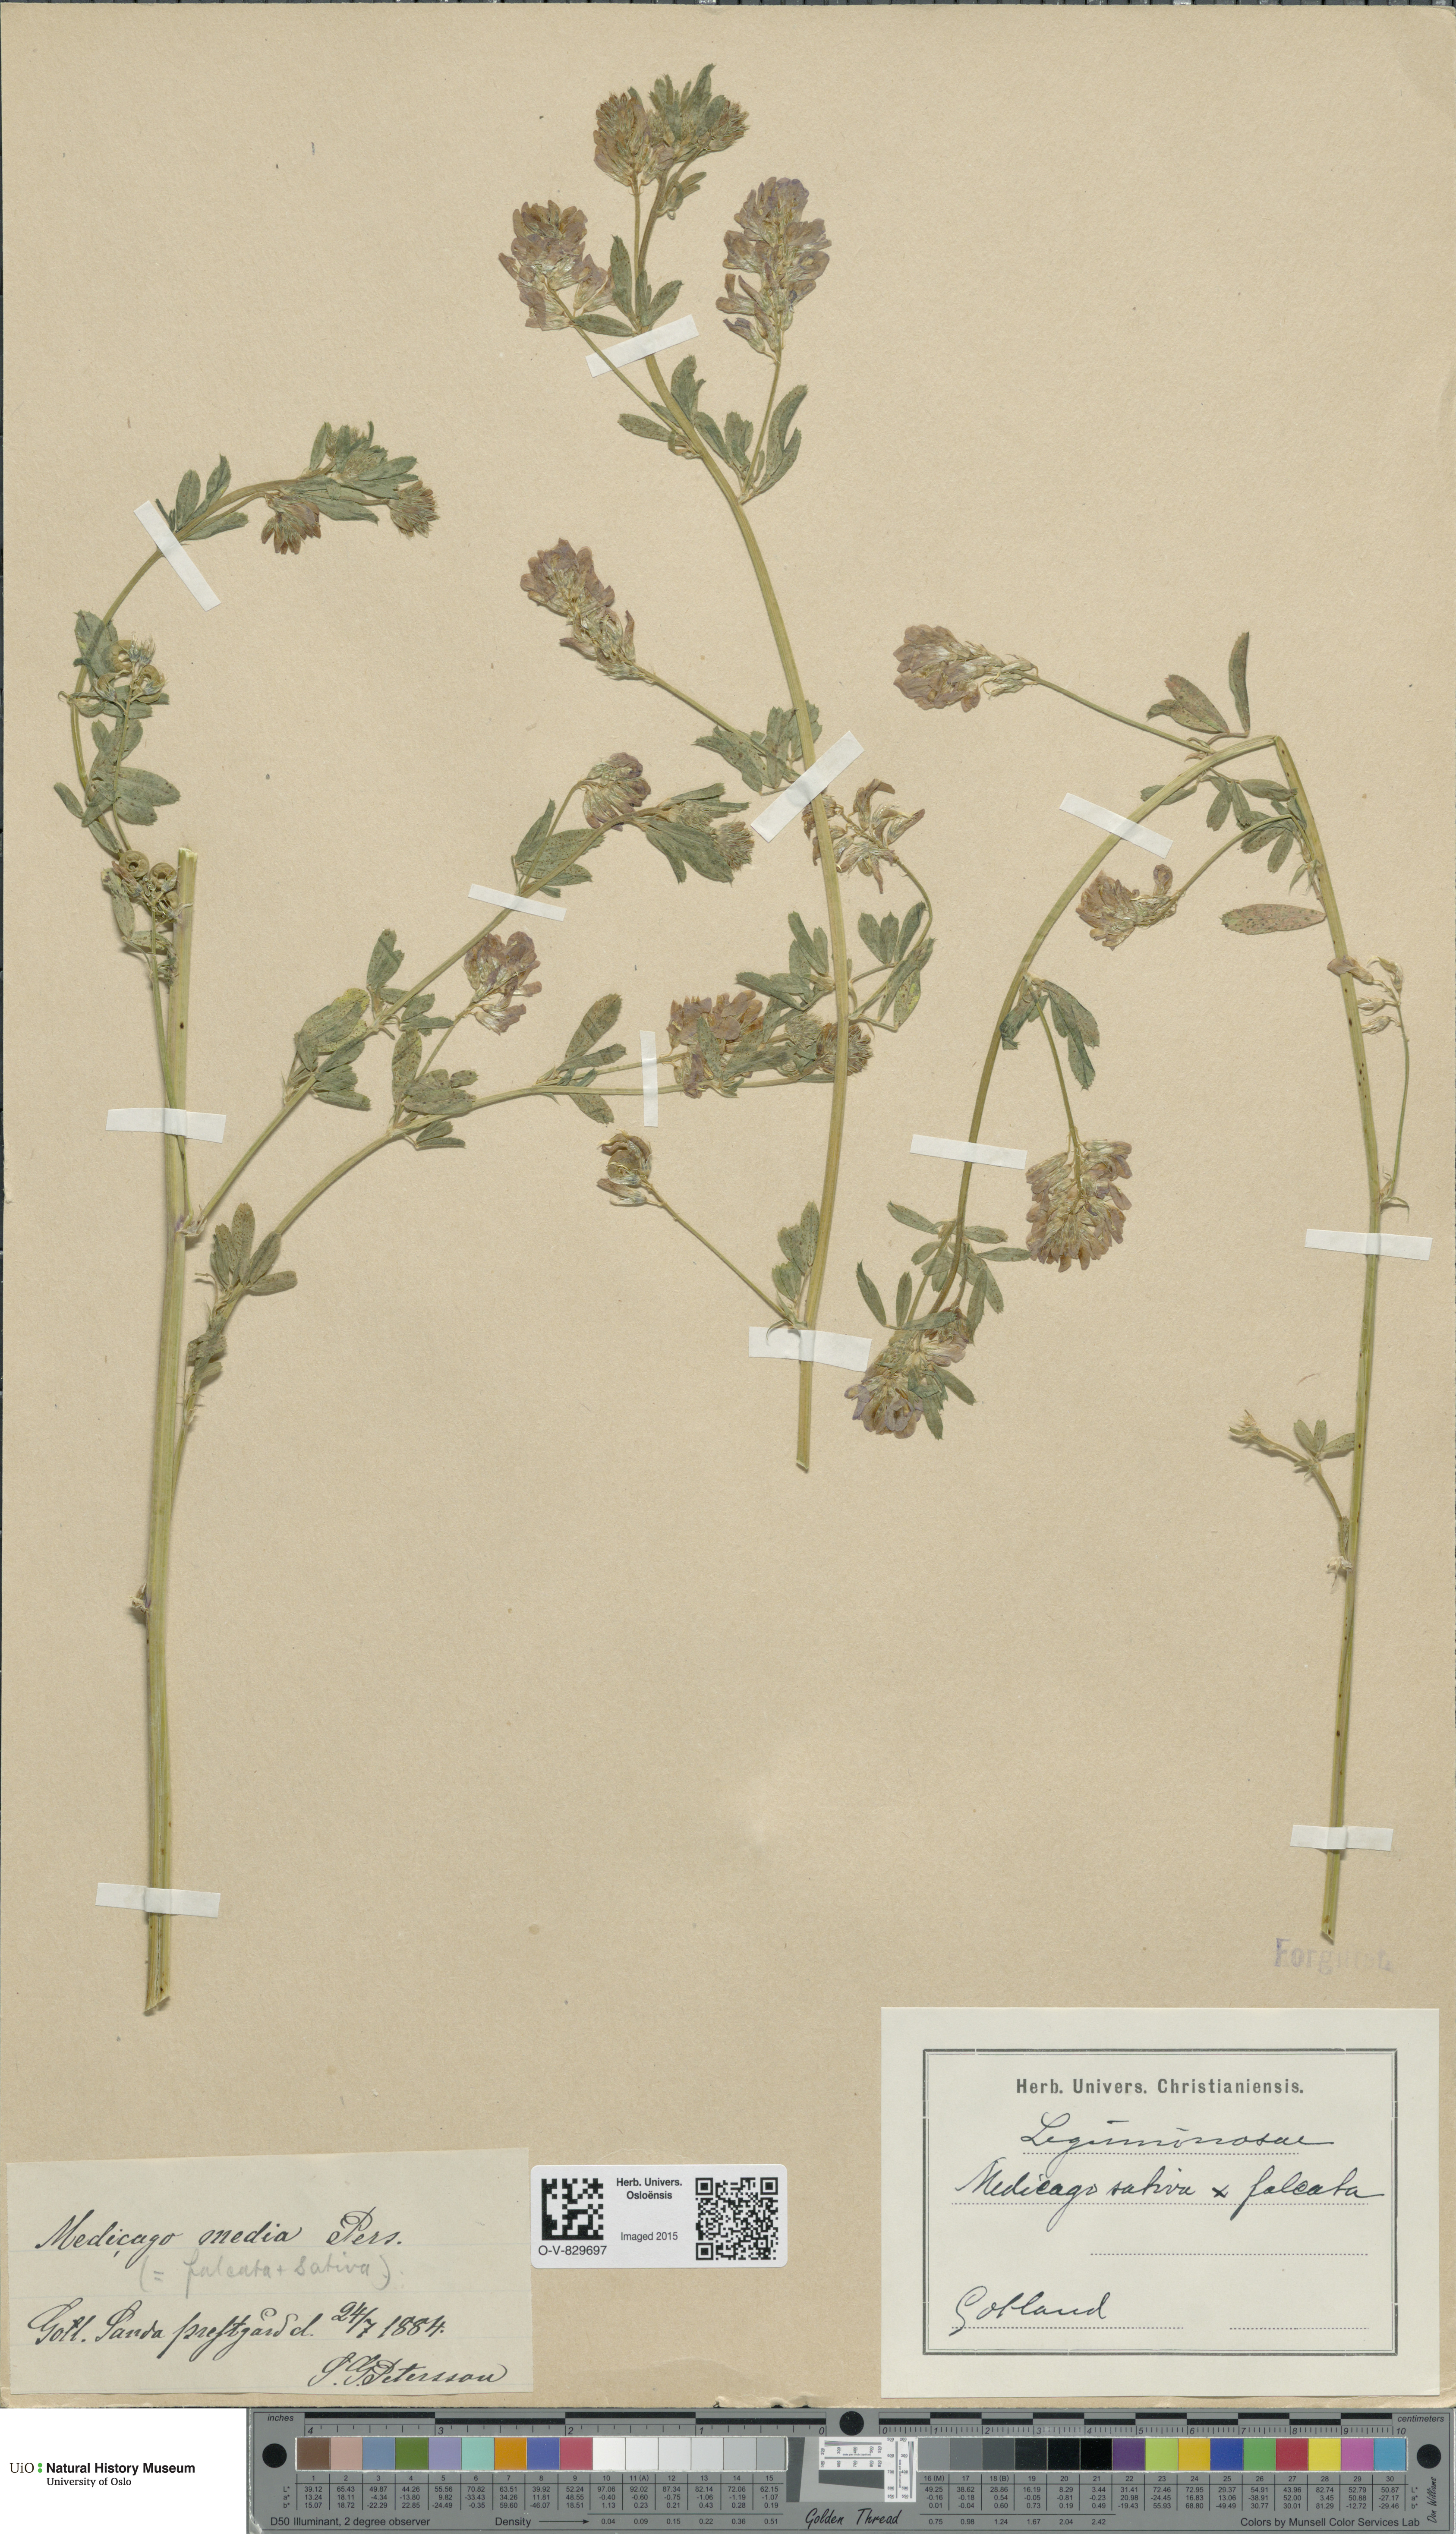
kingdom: Plantae
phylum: Tracheophyta
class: Magnoliopsida
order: Fabales
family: Fabaceae
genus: Medicago
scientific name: Medicago varia
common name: Sand lucerne
